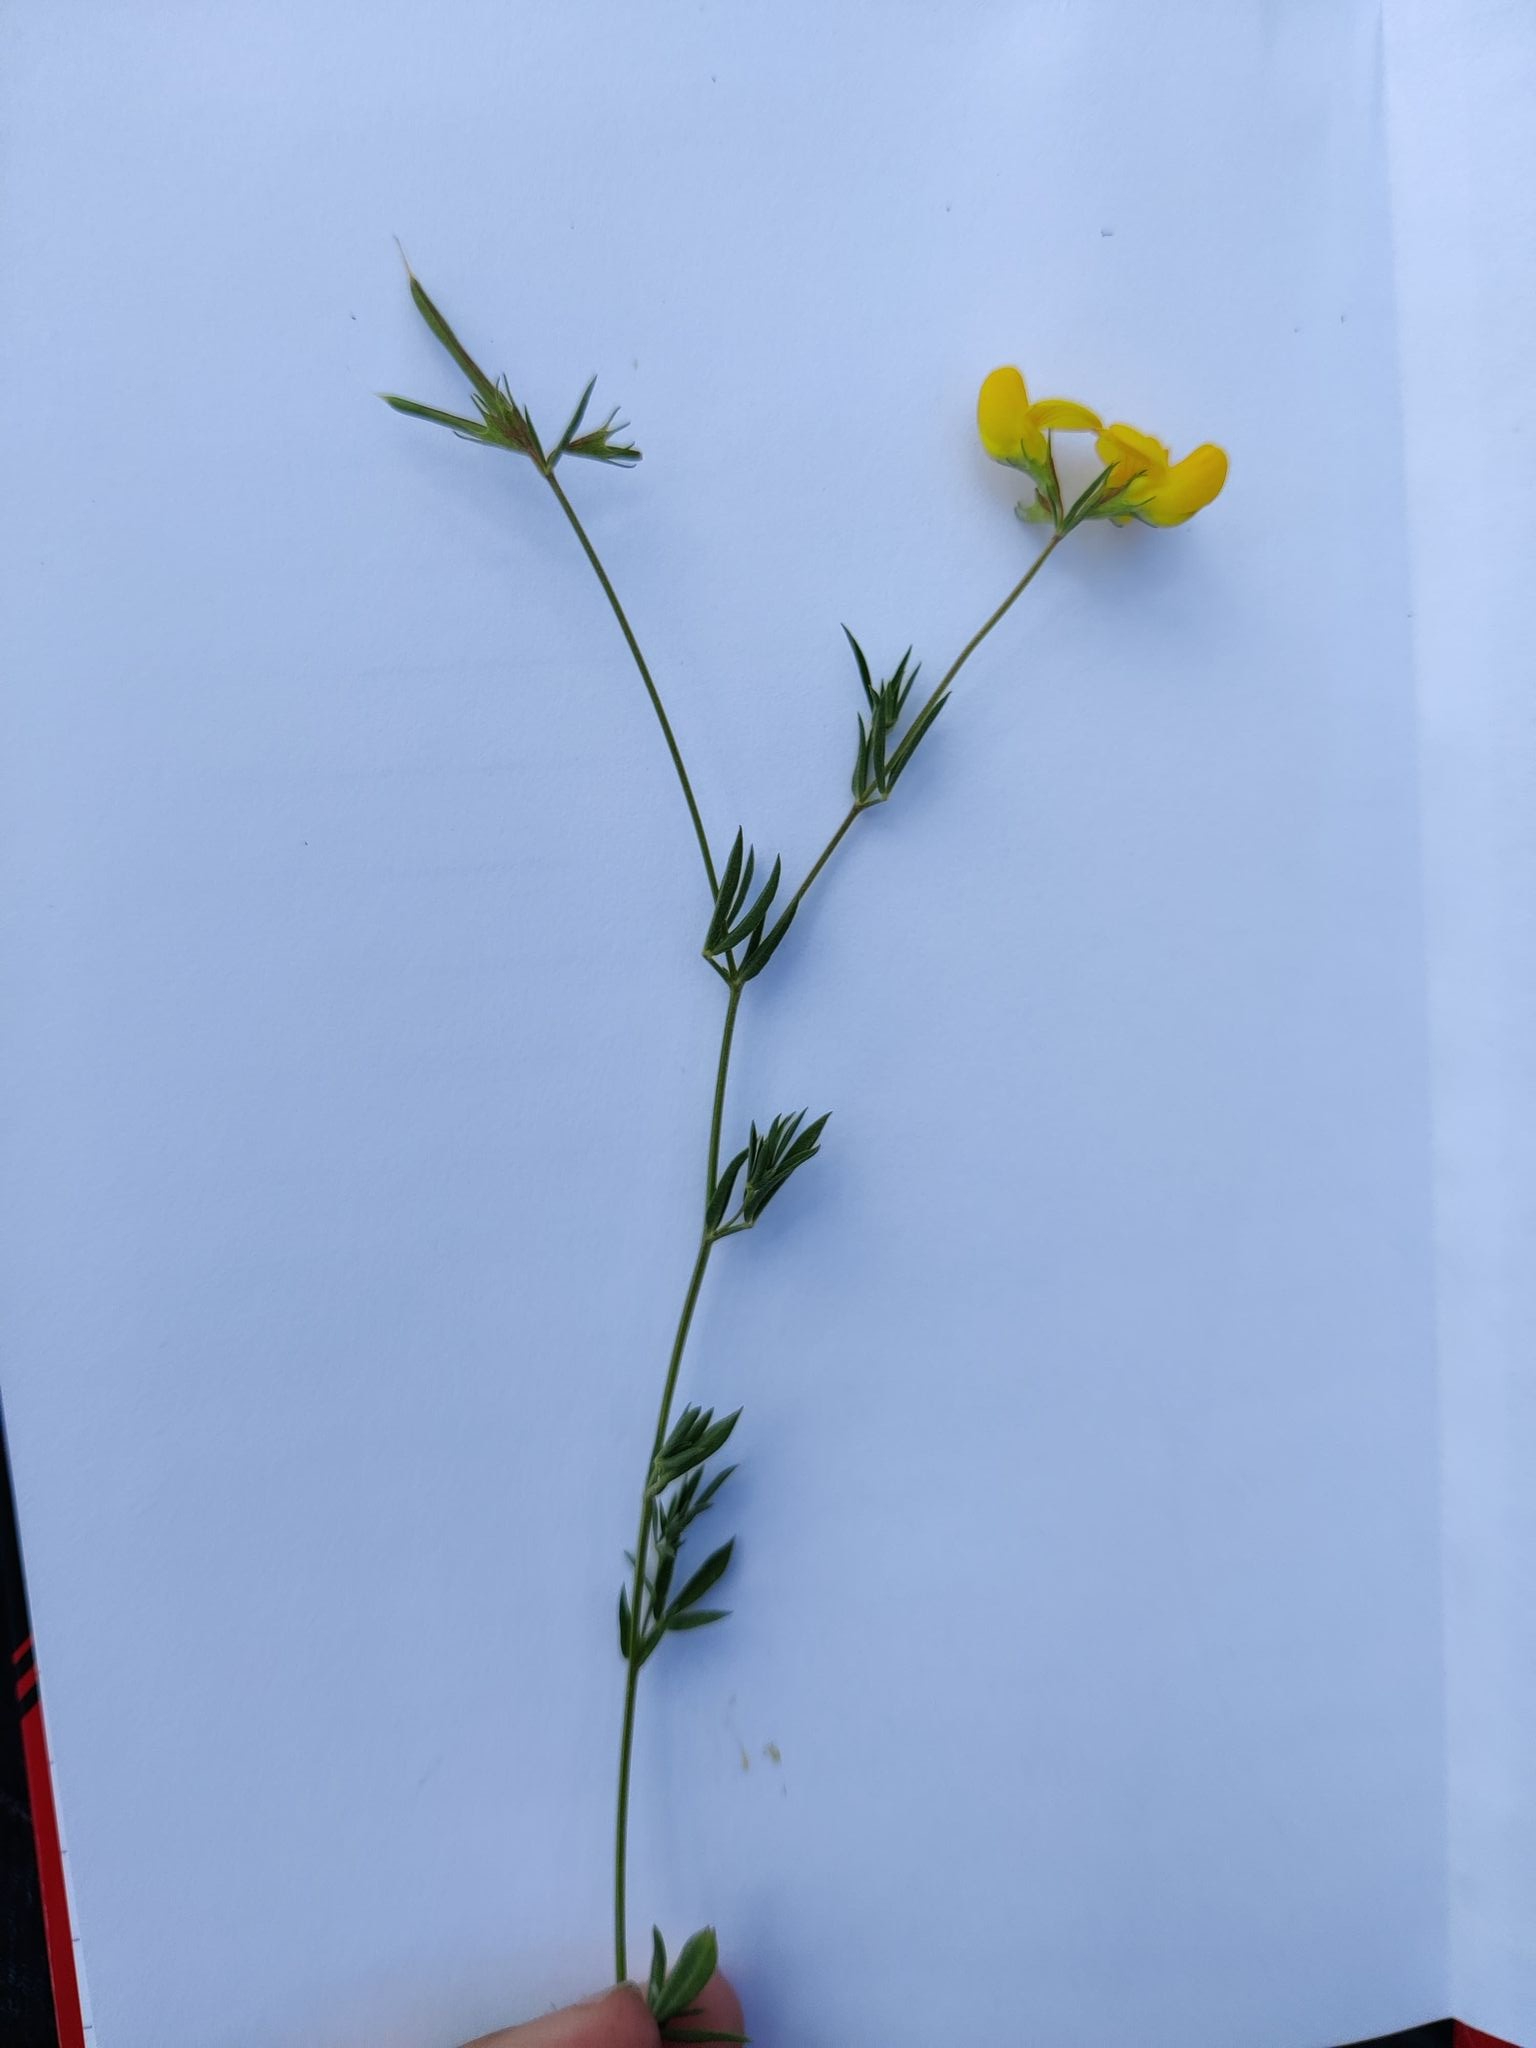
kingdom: Plantae
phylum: Tracheophyta
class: Magnoliopsida
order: Fabales
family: Fabaceae
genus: Lotus
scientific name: Lotus tenuis
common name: Smalbladet kællingetand
